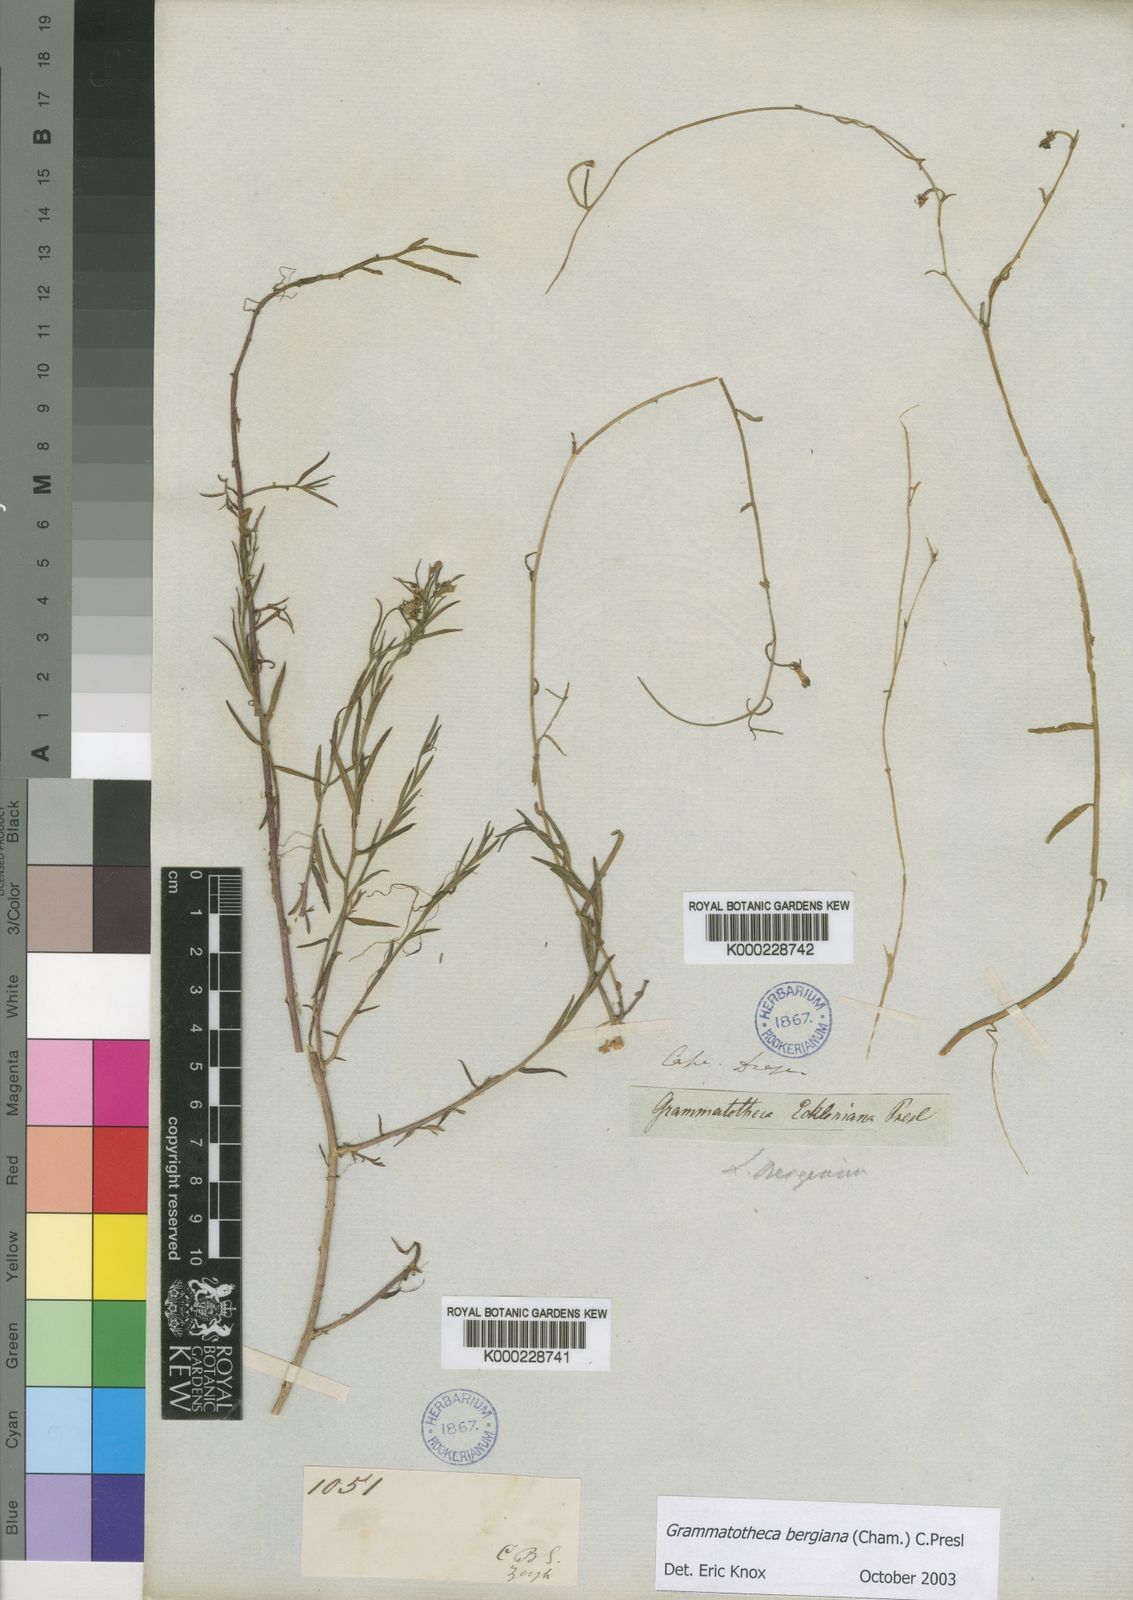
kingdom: Plantae
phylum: Tracheophyta
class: Magnoliopsida
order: Asterales
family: Campanulaceae
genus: Grammatotheca
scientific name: Grammatotheca bergiana
